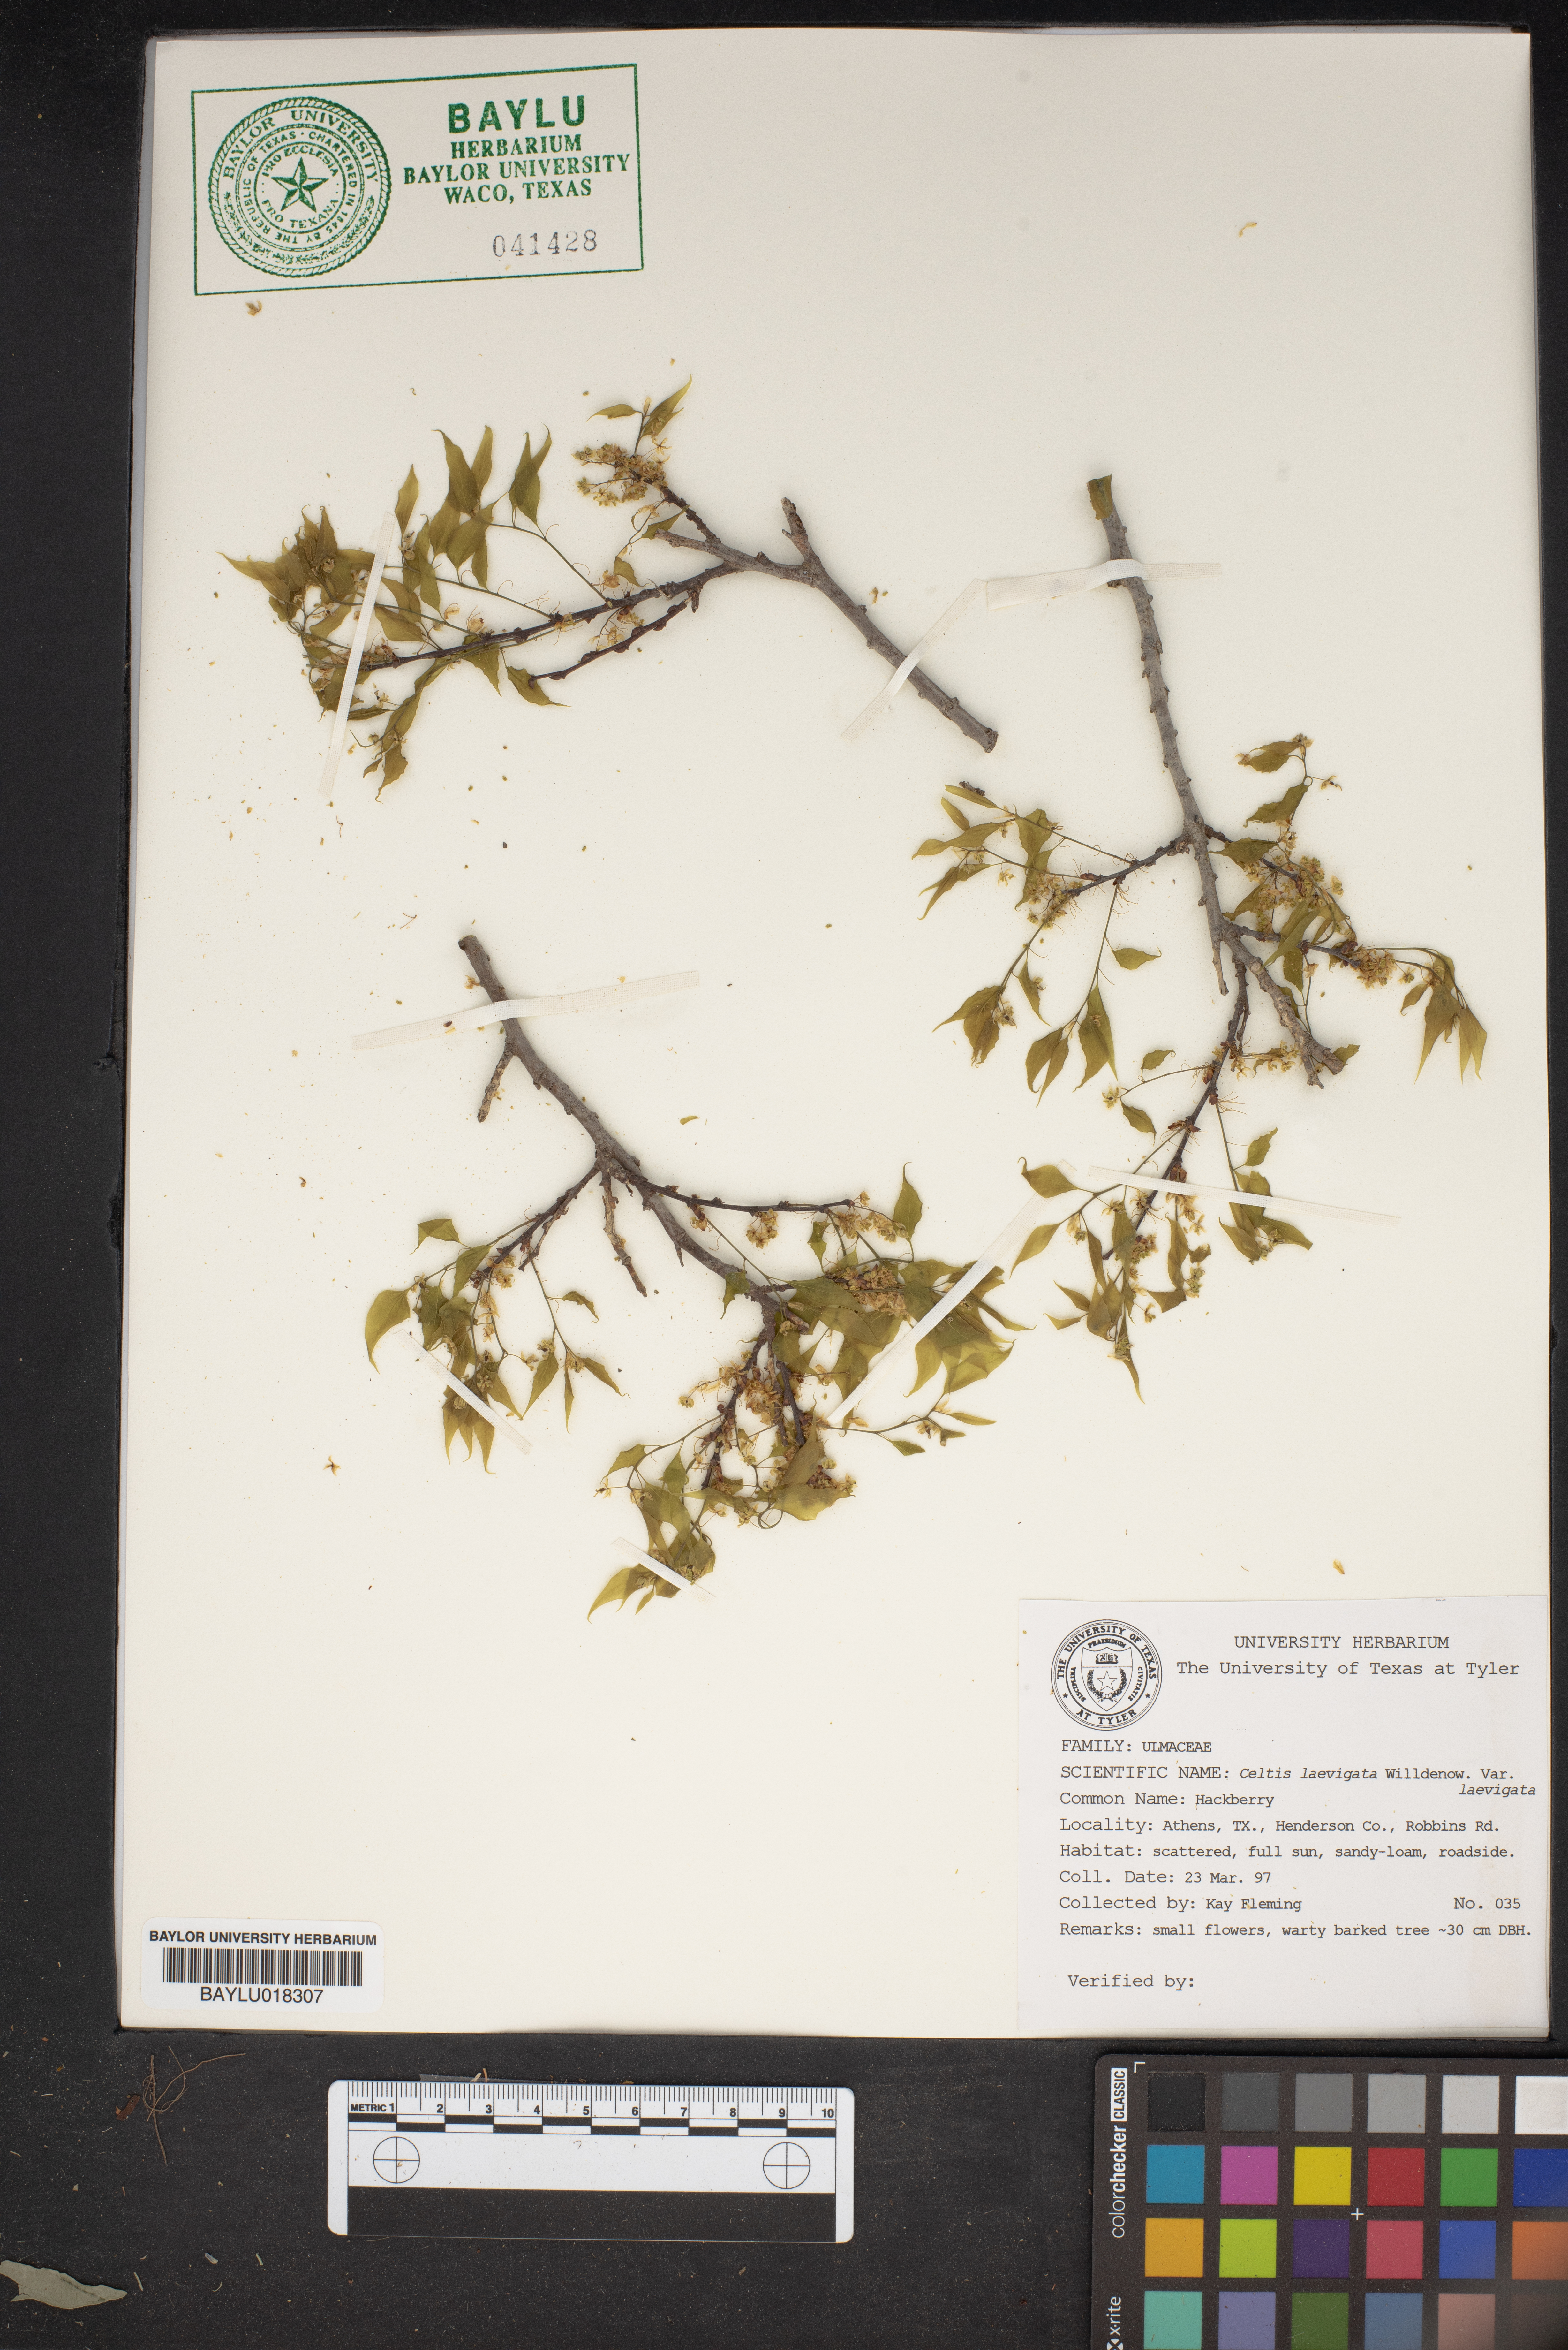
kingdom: Plantae
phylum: Tracheophyta
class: Magnoliopsida
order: Rosales
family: Cannabaceae
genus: Celtis
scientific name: Celtis laevigata
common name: Sugarberry
